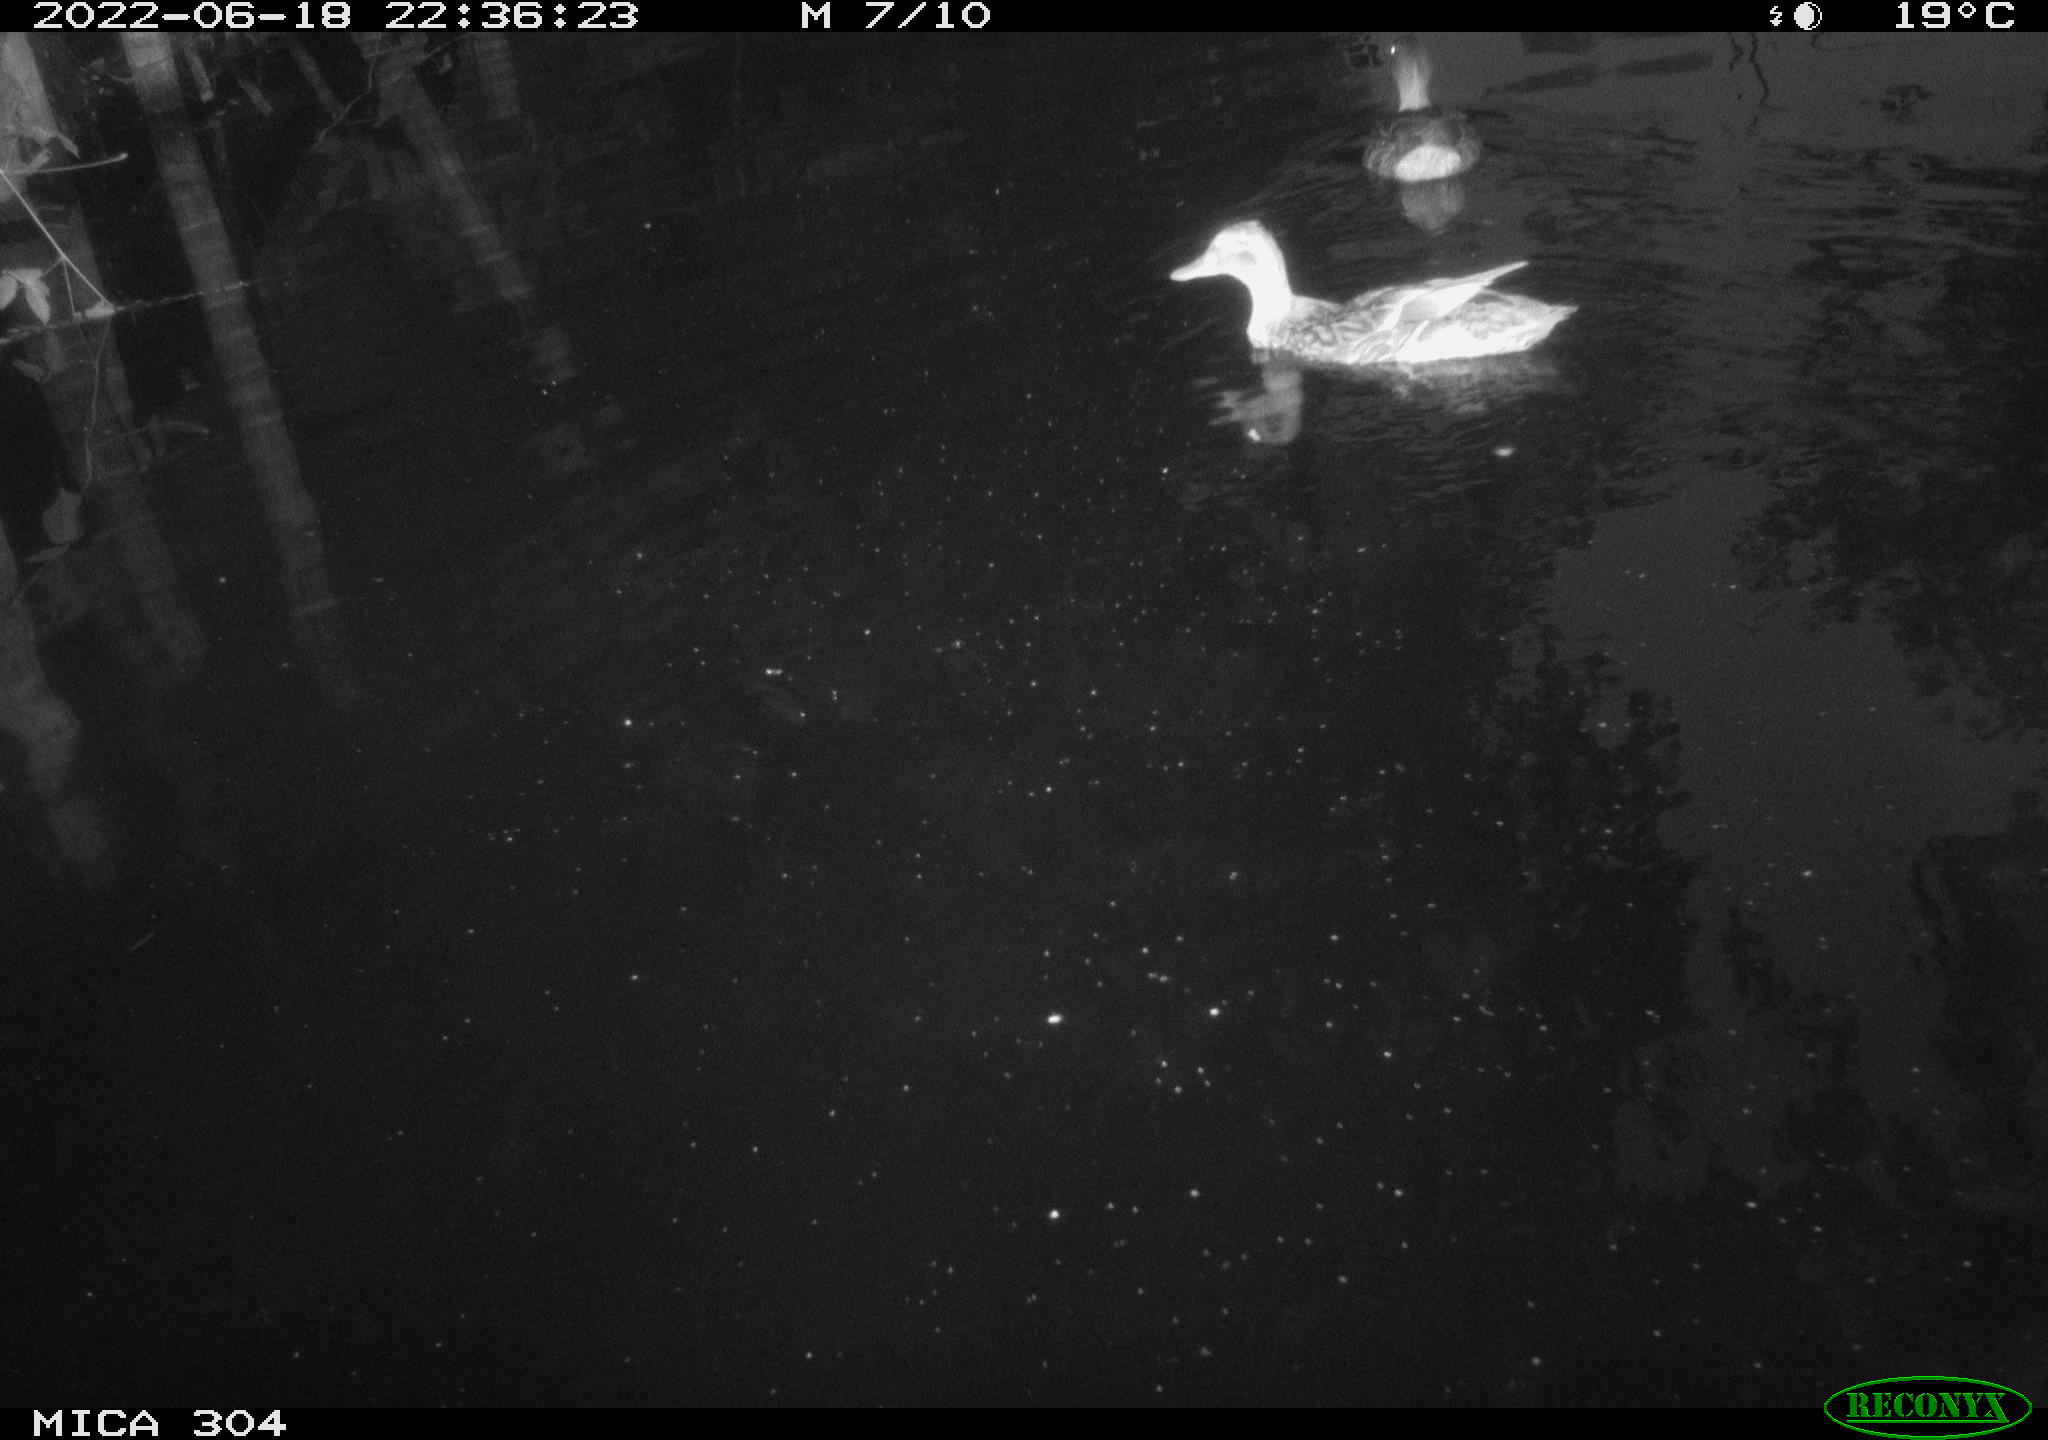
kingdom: Animalia
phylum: Chordata
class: Aves
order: Anseriformes
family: Anatidae
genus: Mareca
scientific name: Mareca strepera
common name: Gadwall
